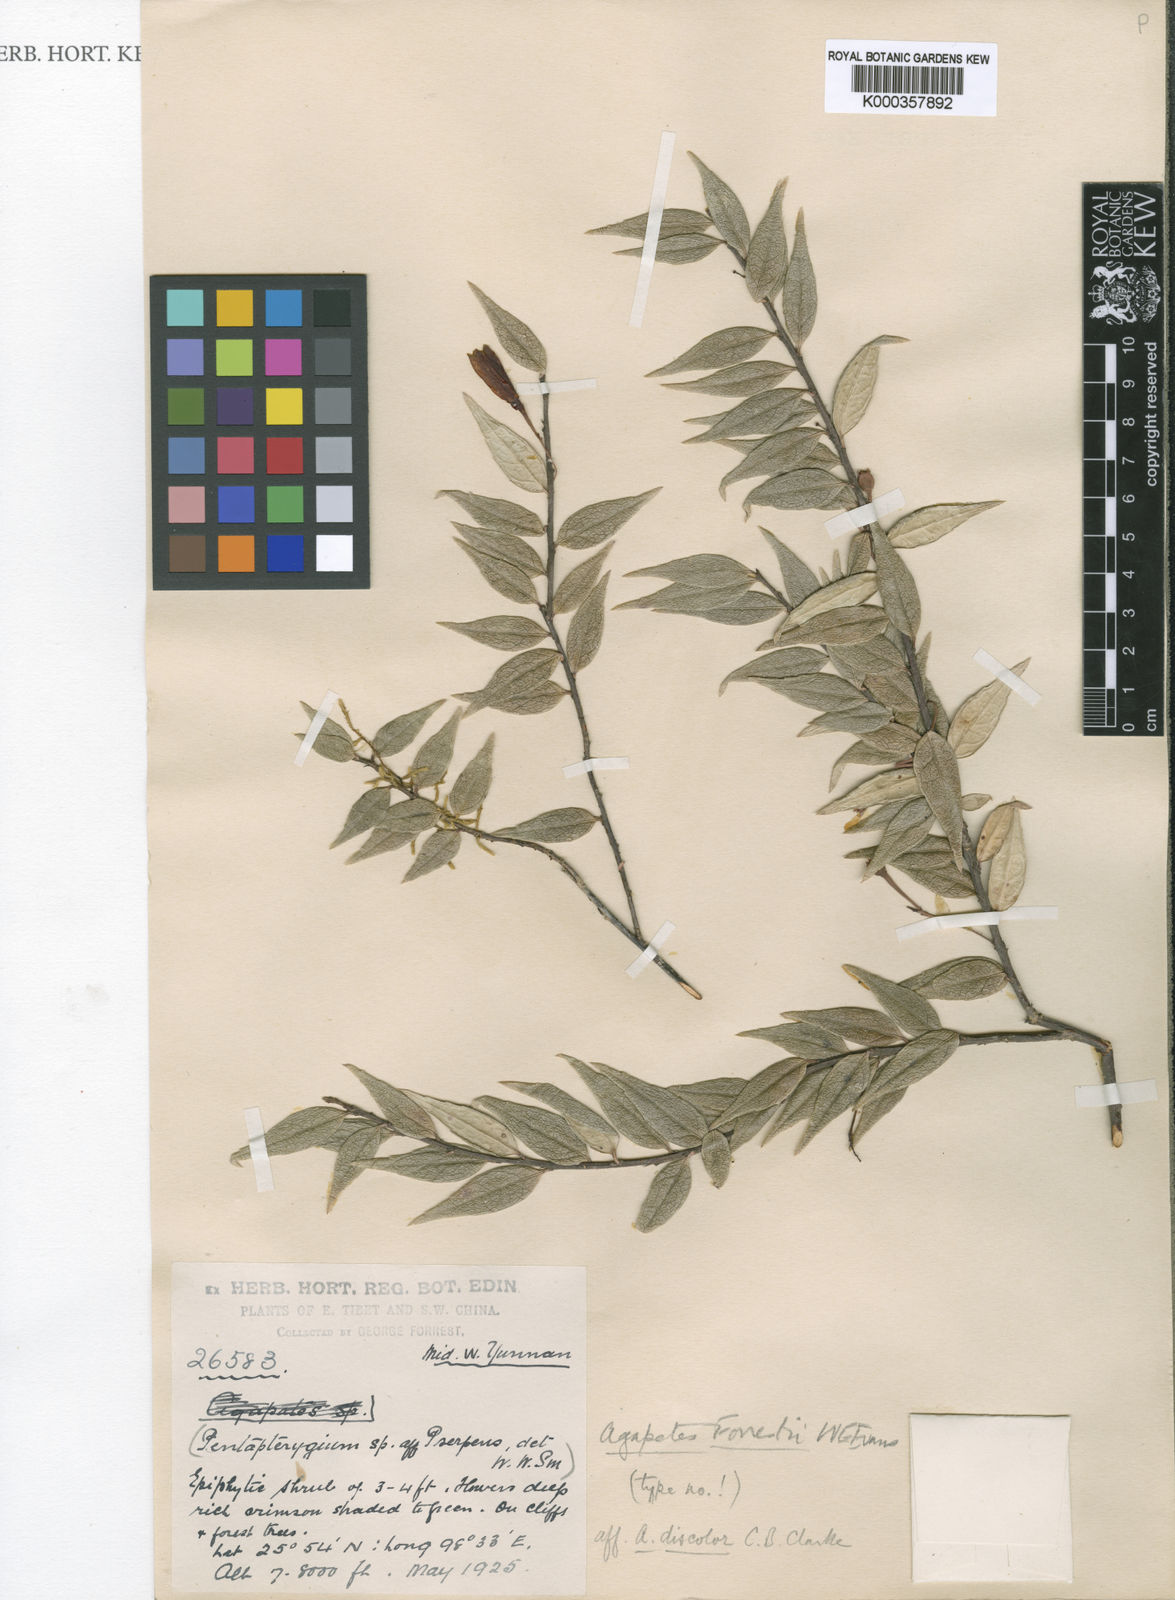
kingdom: Plantae
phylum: Tracheophyta
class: Magnoliopsida
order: Ericales
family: Ericaceae
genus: Agapetes
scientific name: Agapetes forrestii
